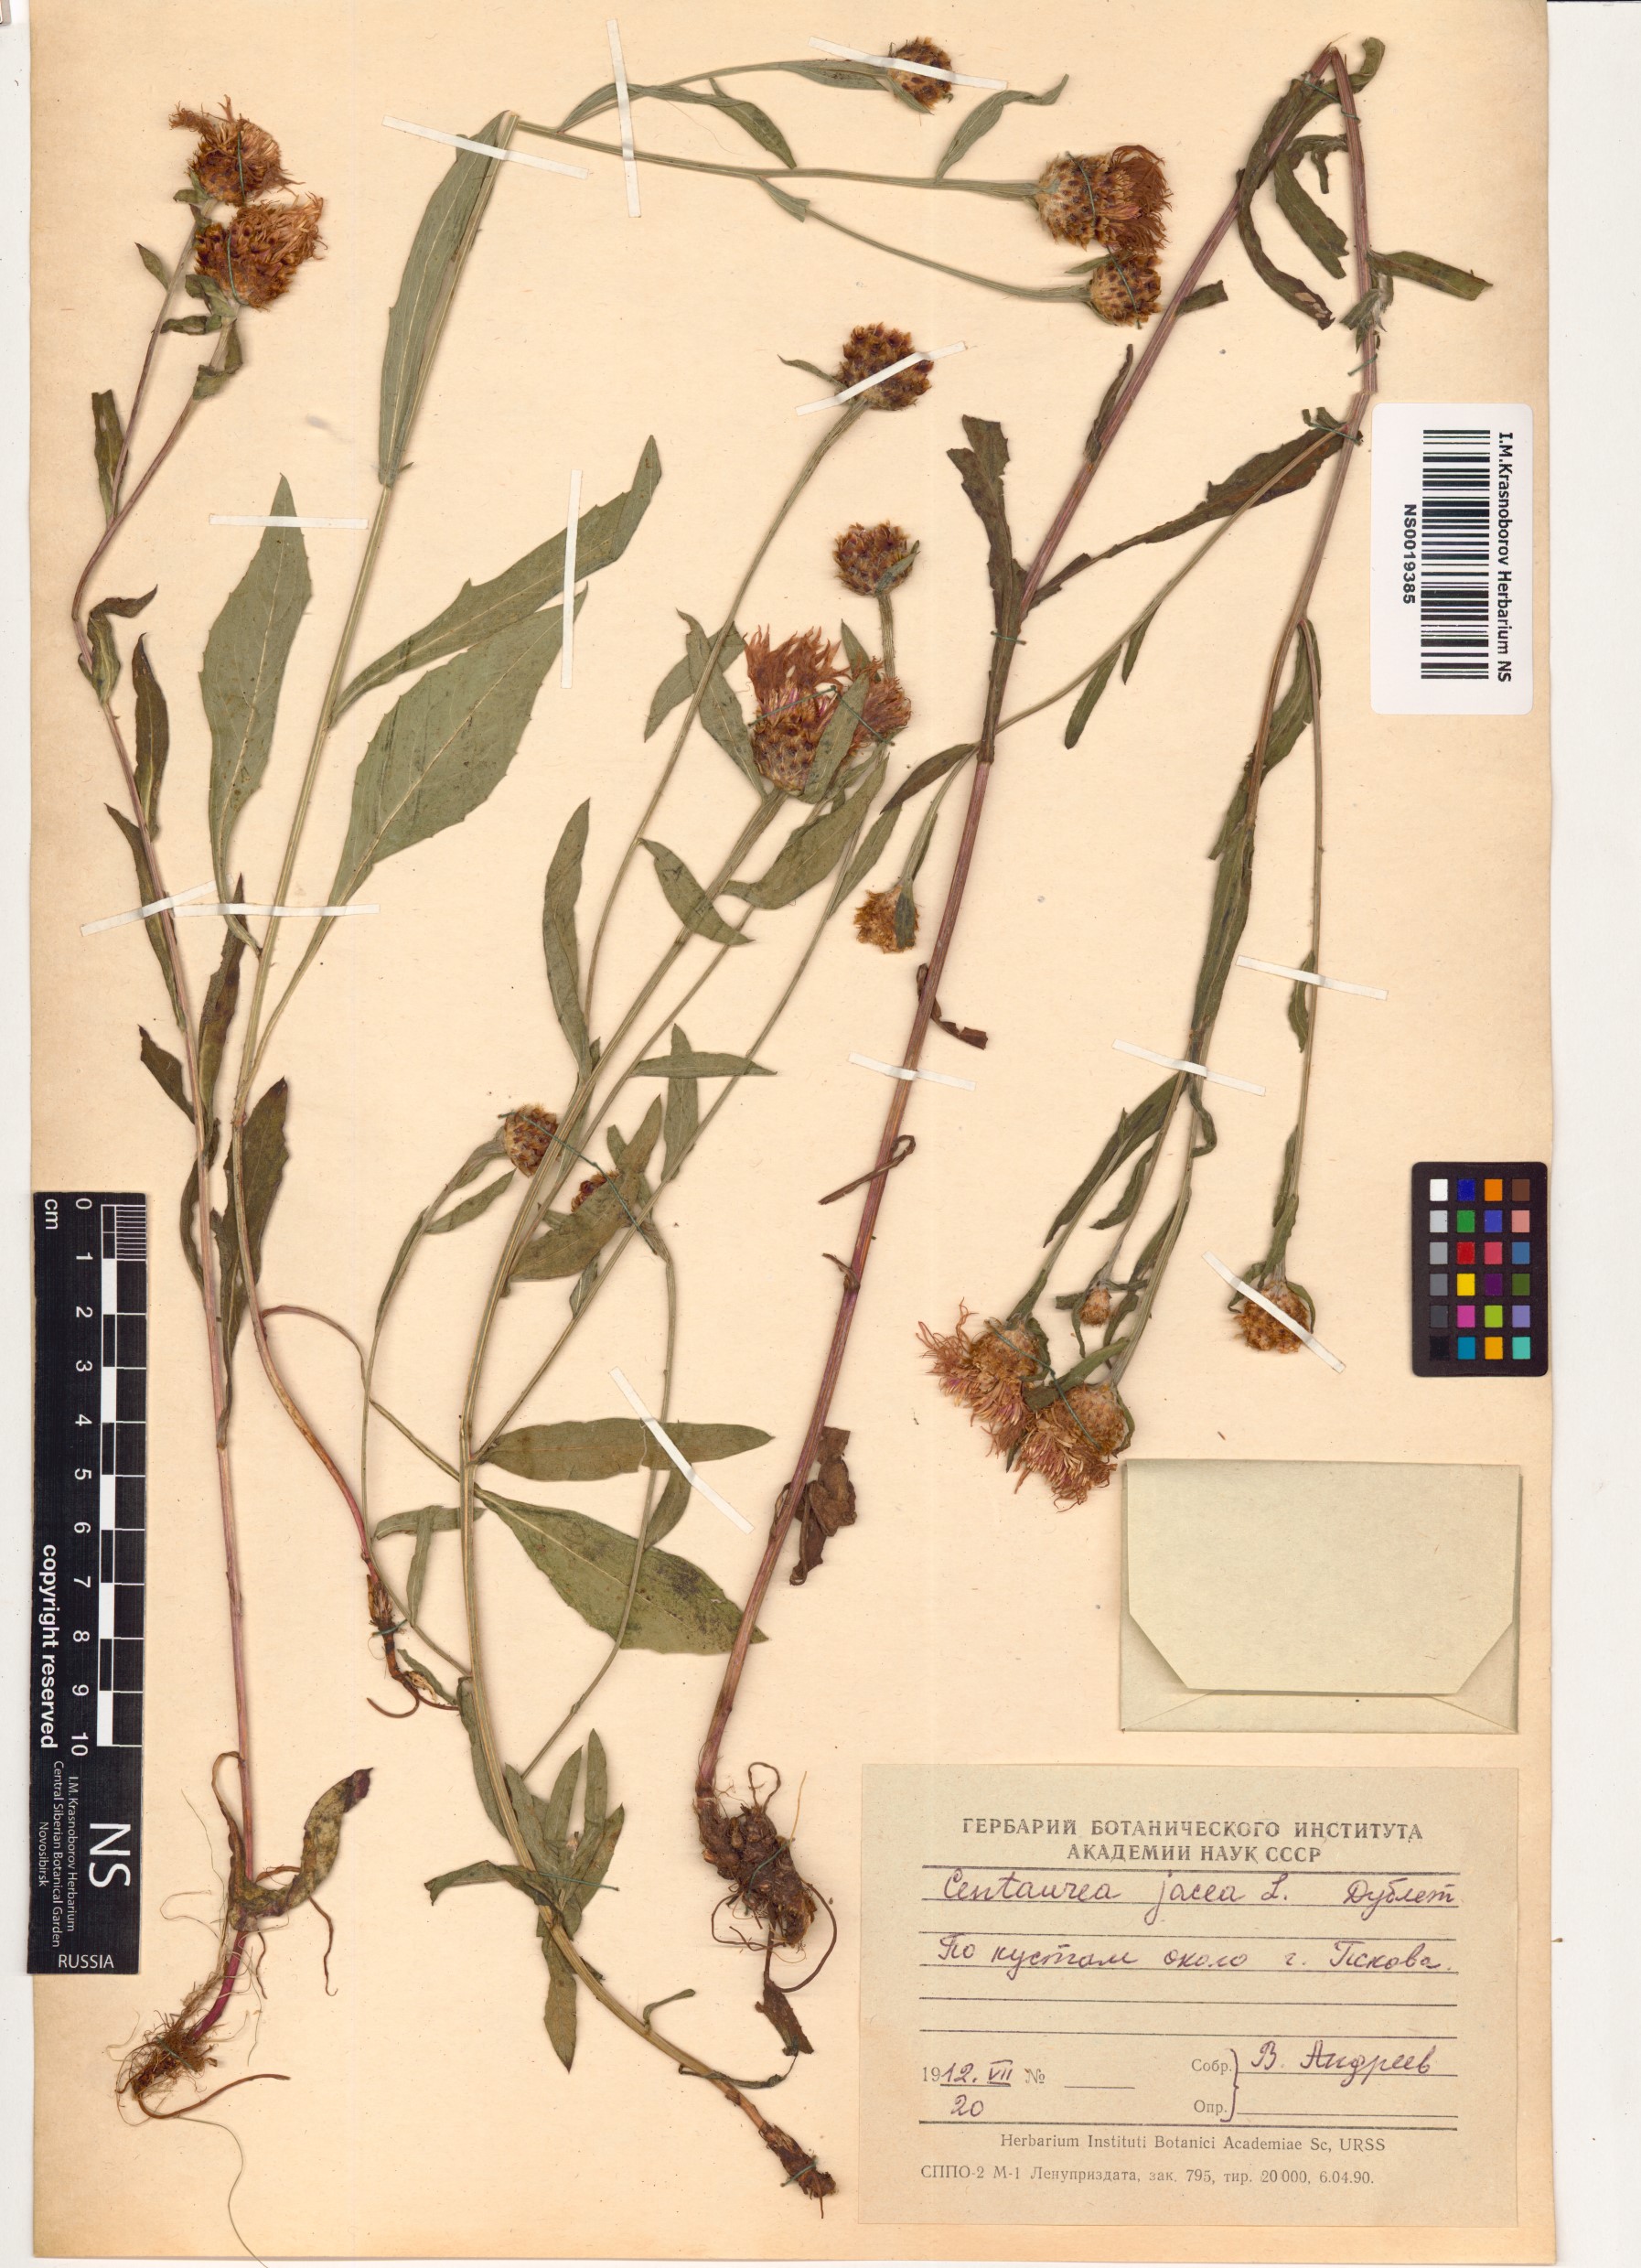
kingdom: Plantae
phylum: Tracheophyta
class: Magnoliopsida
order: Asterales
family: Asteraceae
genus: Centaurea
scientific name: Centaurea jacea
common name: Brown knapweed
